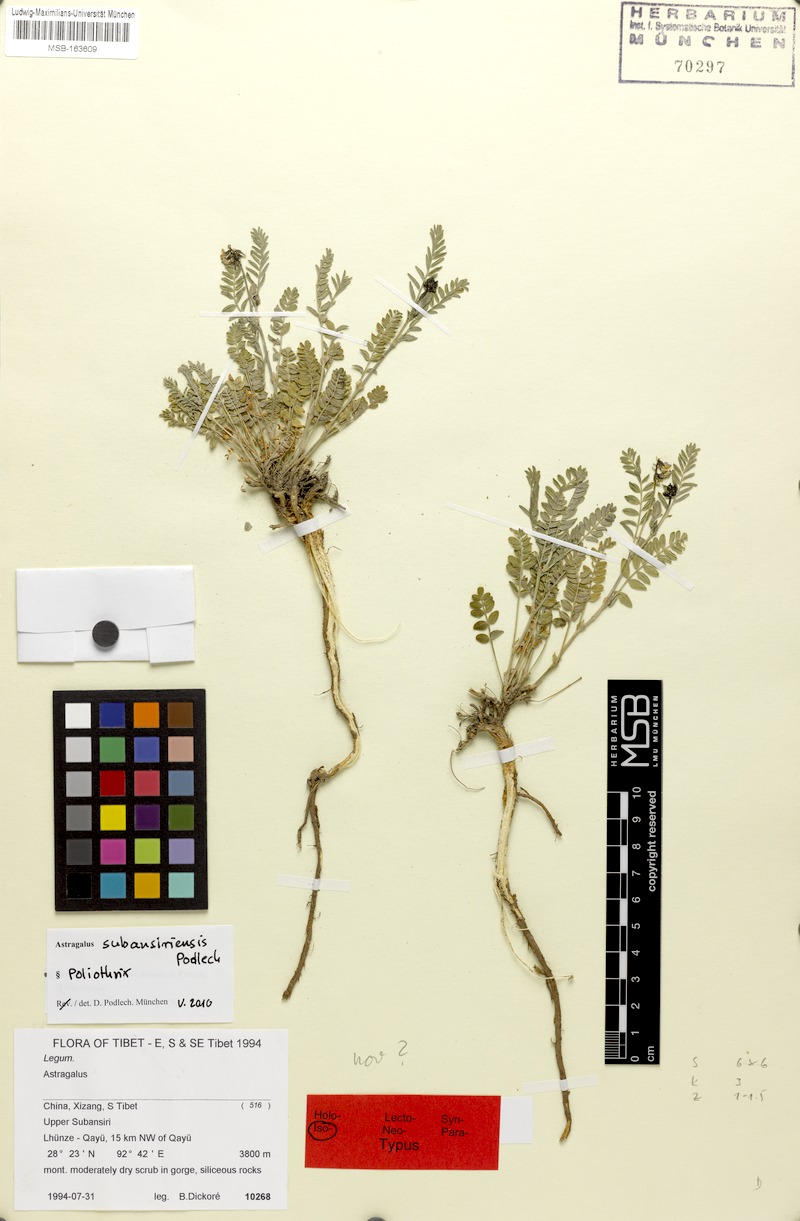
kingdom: Plantae
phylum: Tracheophyta
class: Magnoliopsida
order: Fabales
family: Fabaceae
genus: Astragalus
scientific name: Astragalus subansiriensis
